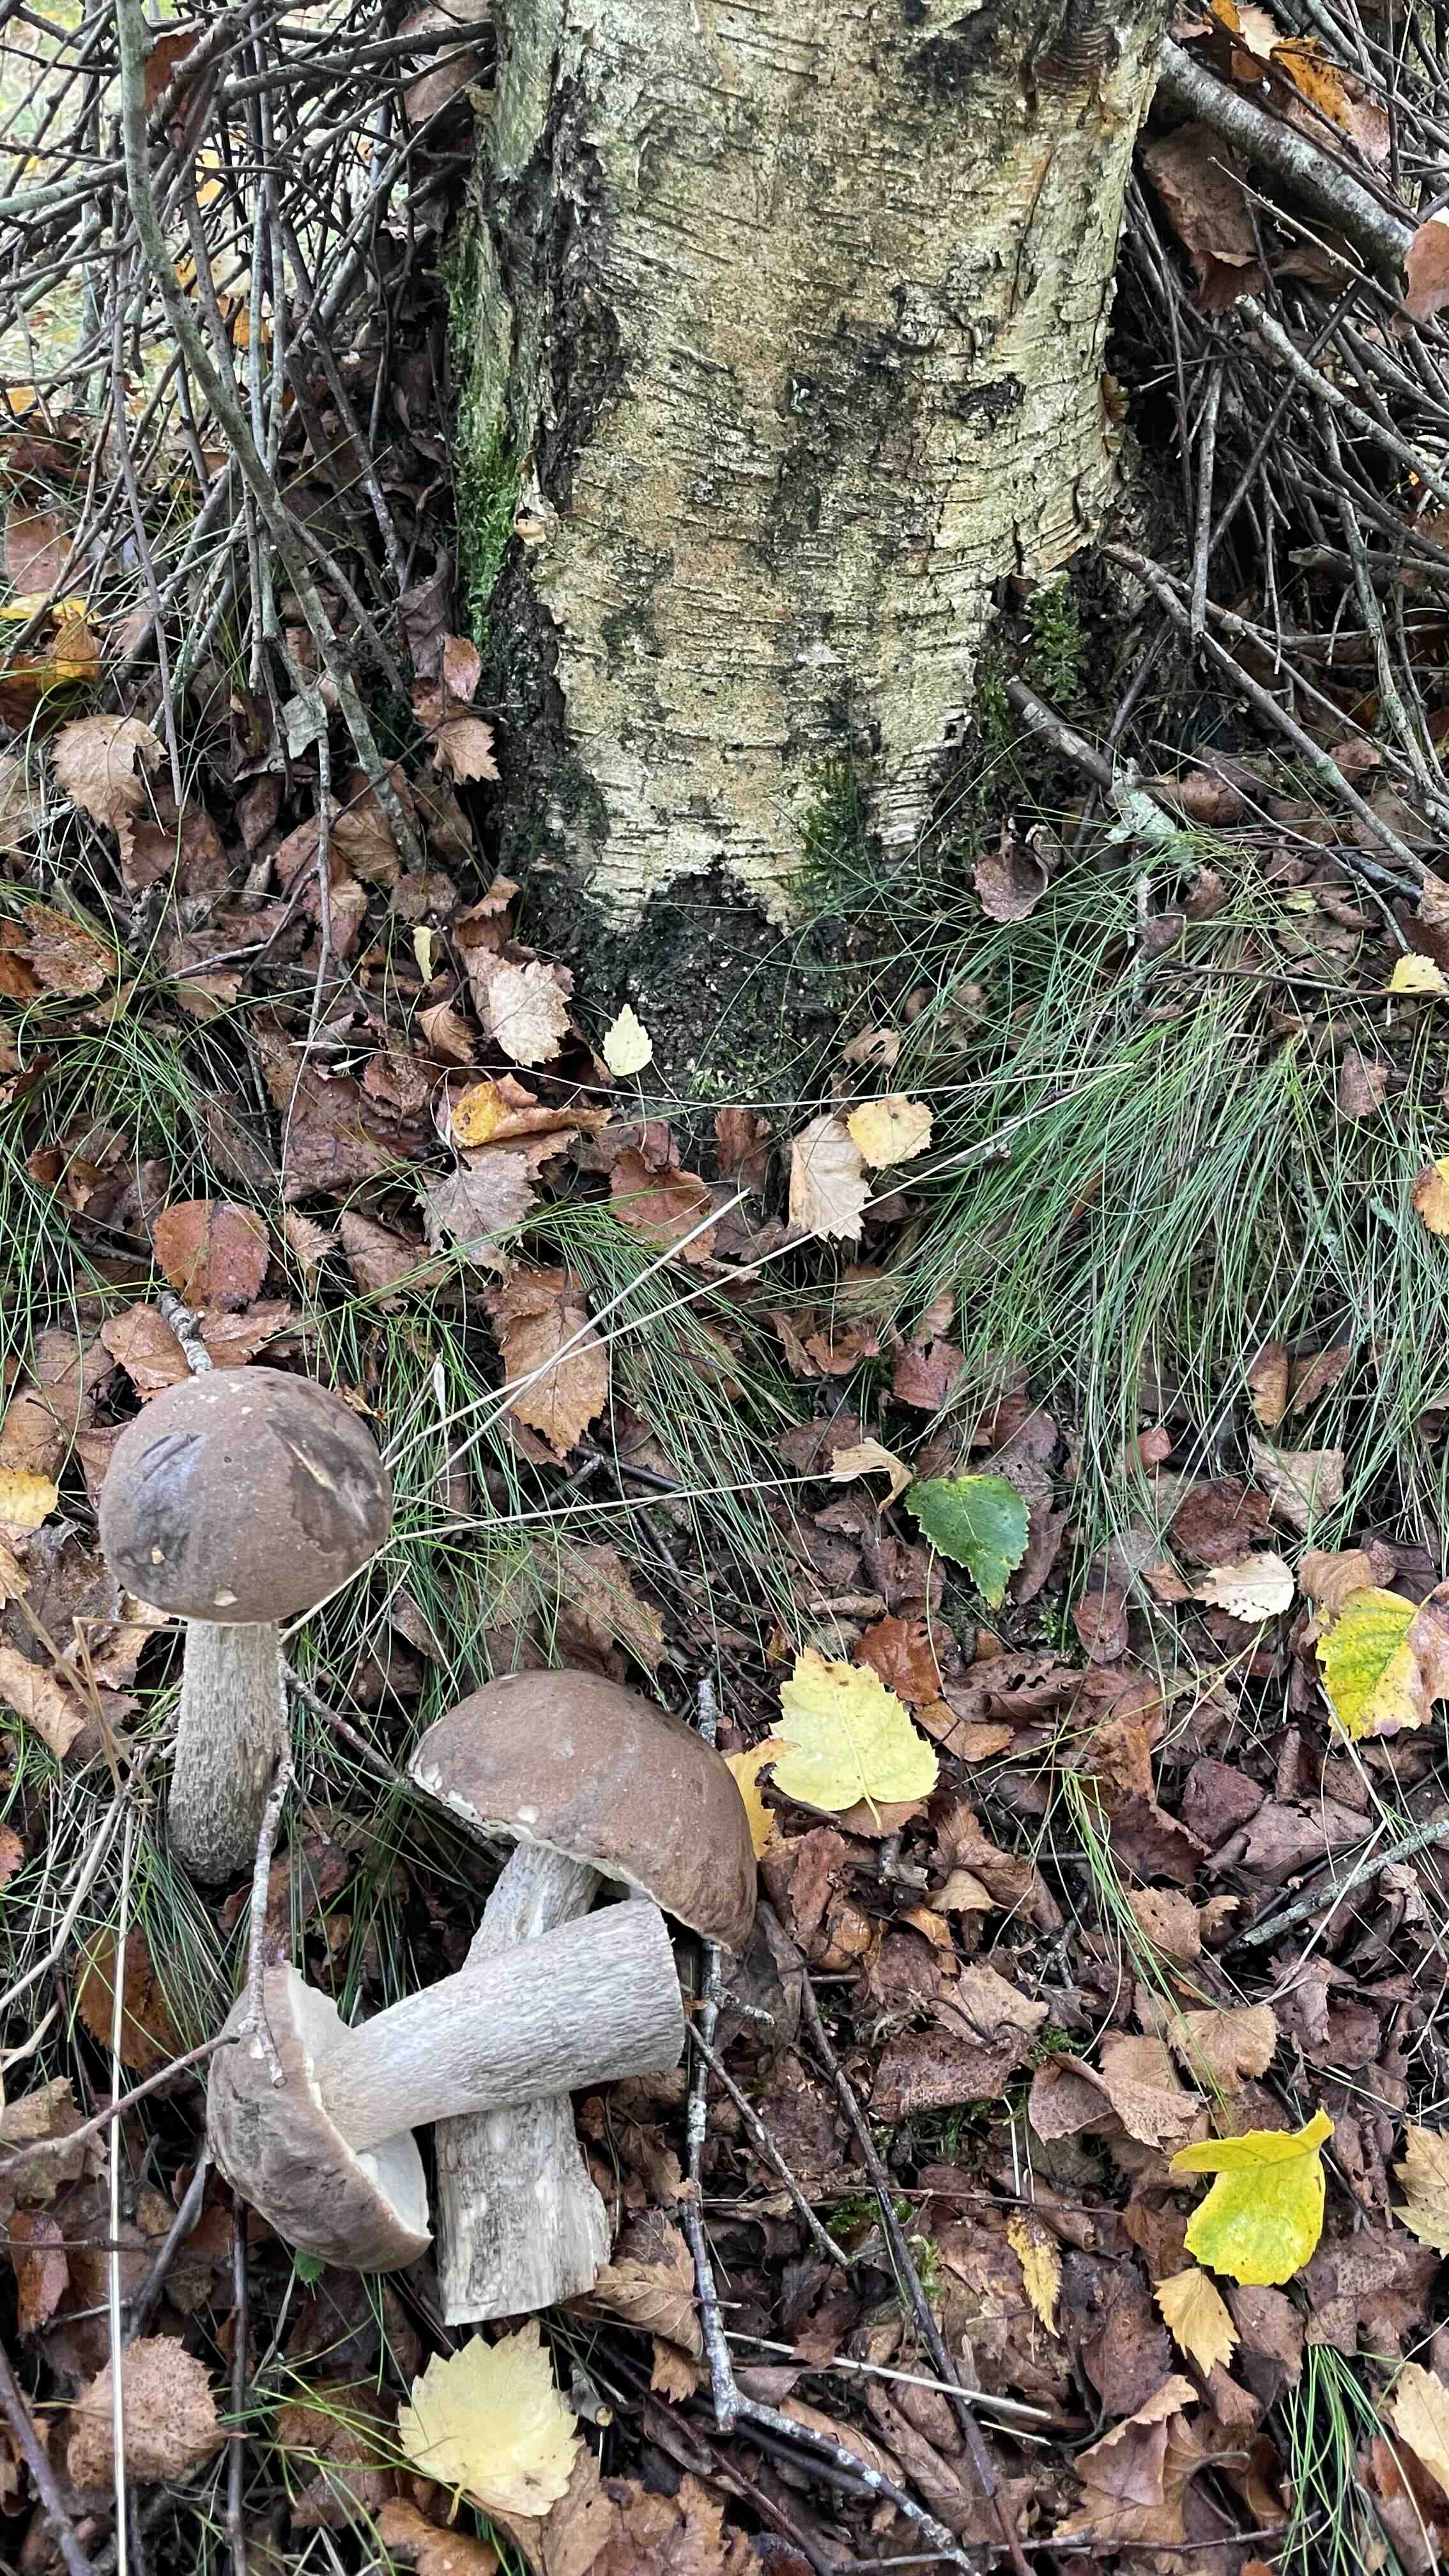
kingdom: Fungi
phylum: Basidiomycota
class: Agaricomycetes
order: Boletales
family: Boletaceae
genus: Leccinum
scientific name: Leccinum
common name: skælrørhat
